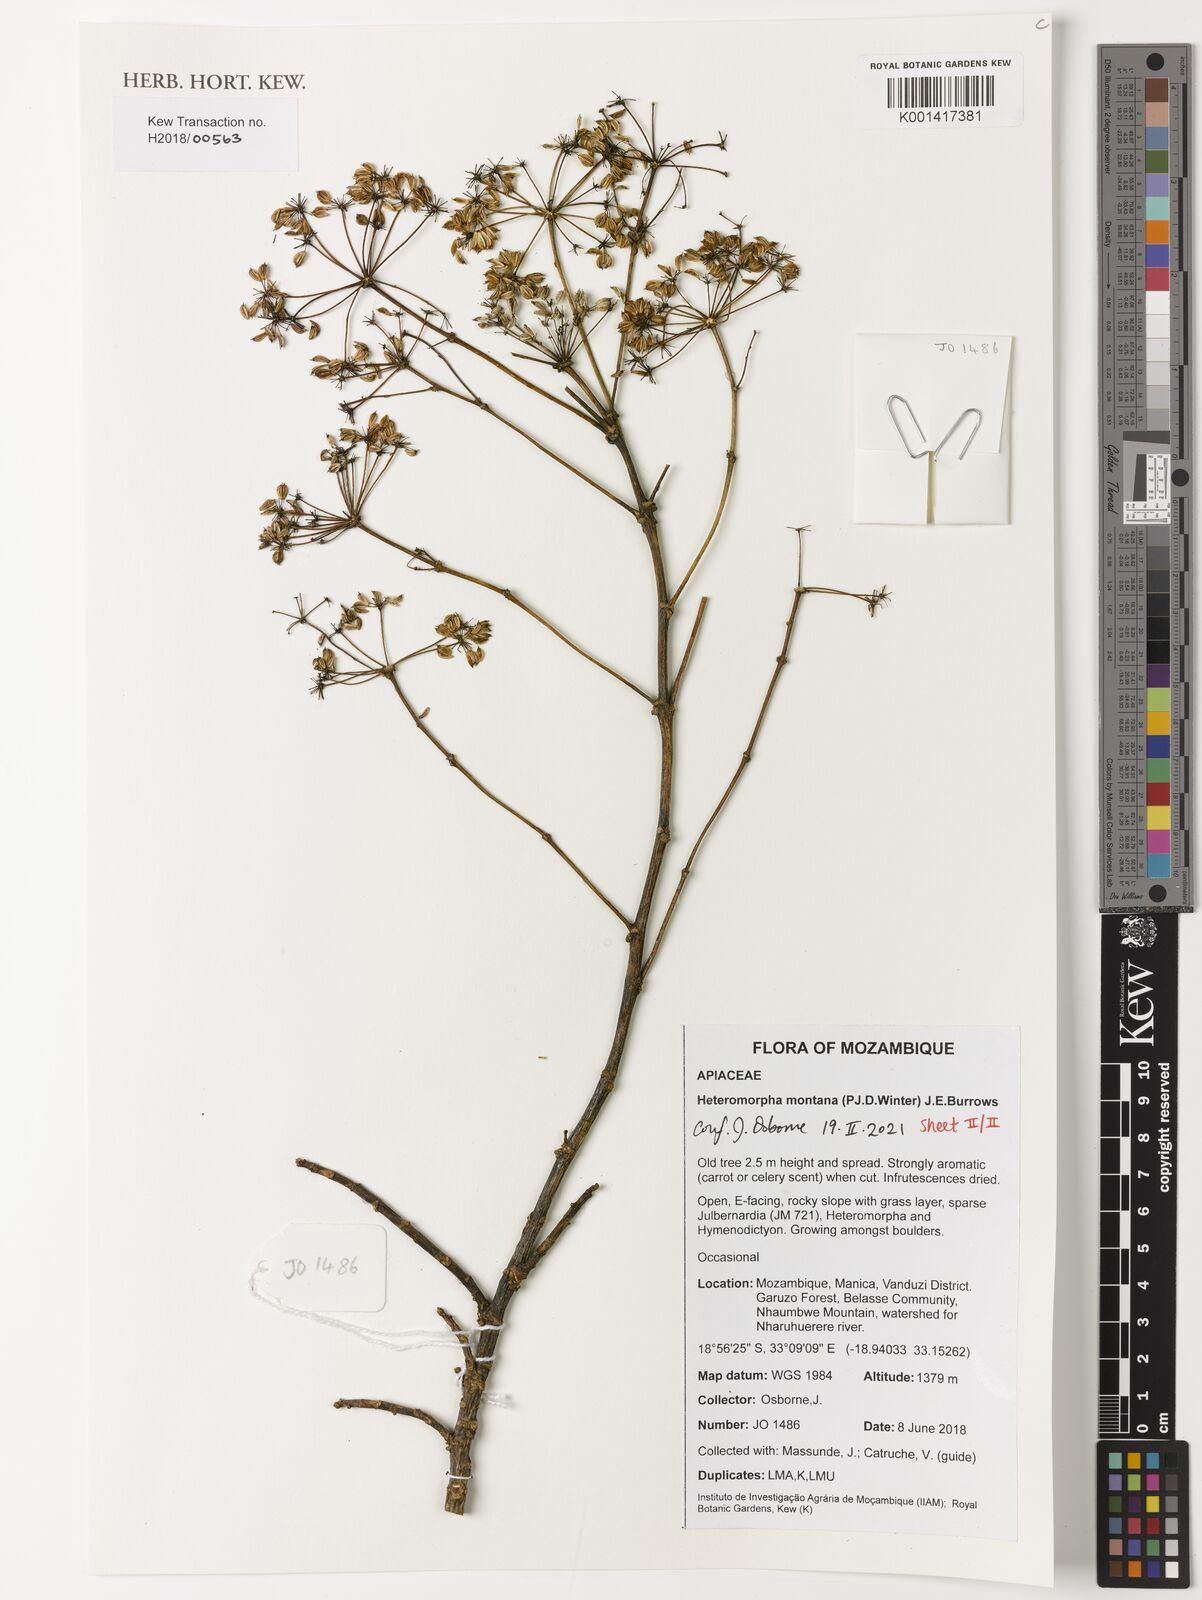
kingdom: Plantae
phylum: Tracheophyta
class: Magnoliopsida
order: Apiales
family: Apiaceae
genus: Heteromorpha
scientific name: Heteromorpha montana
